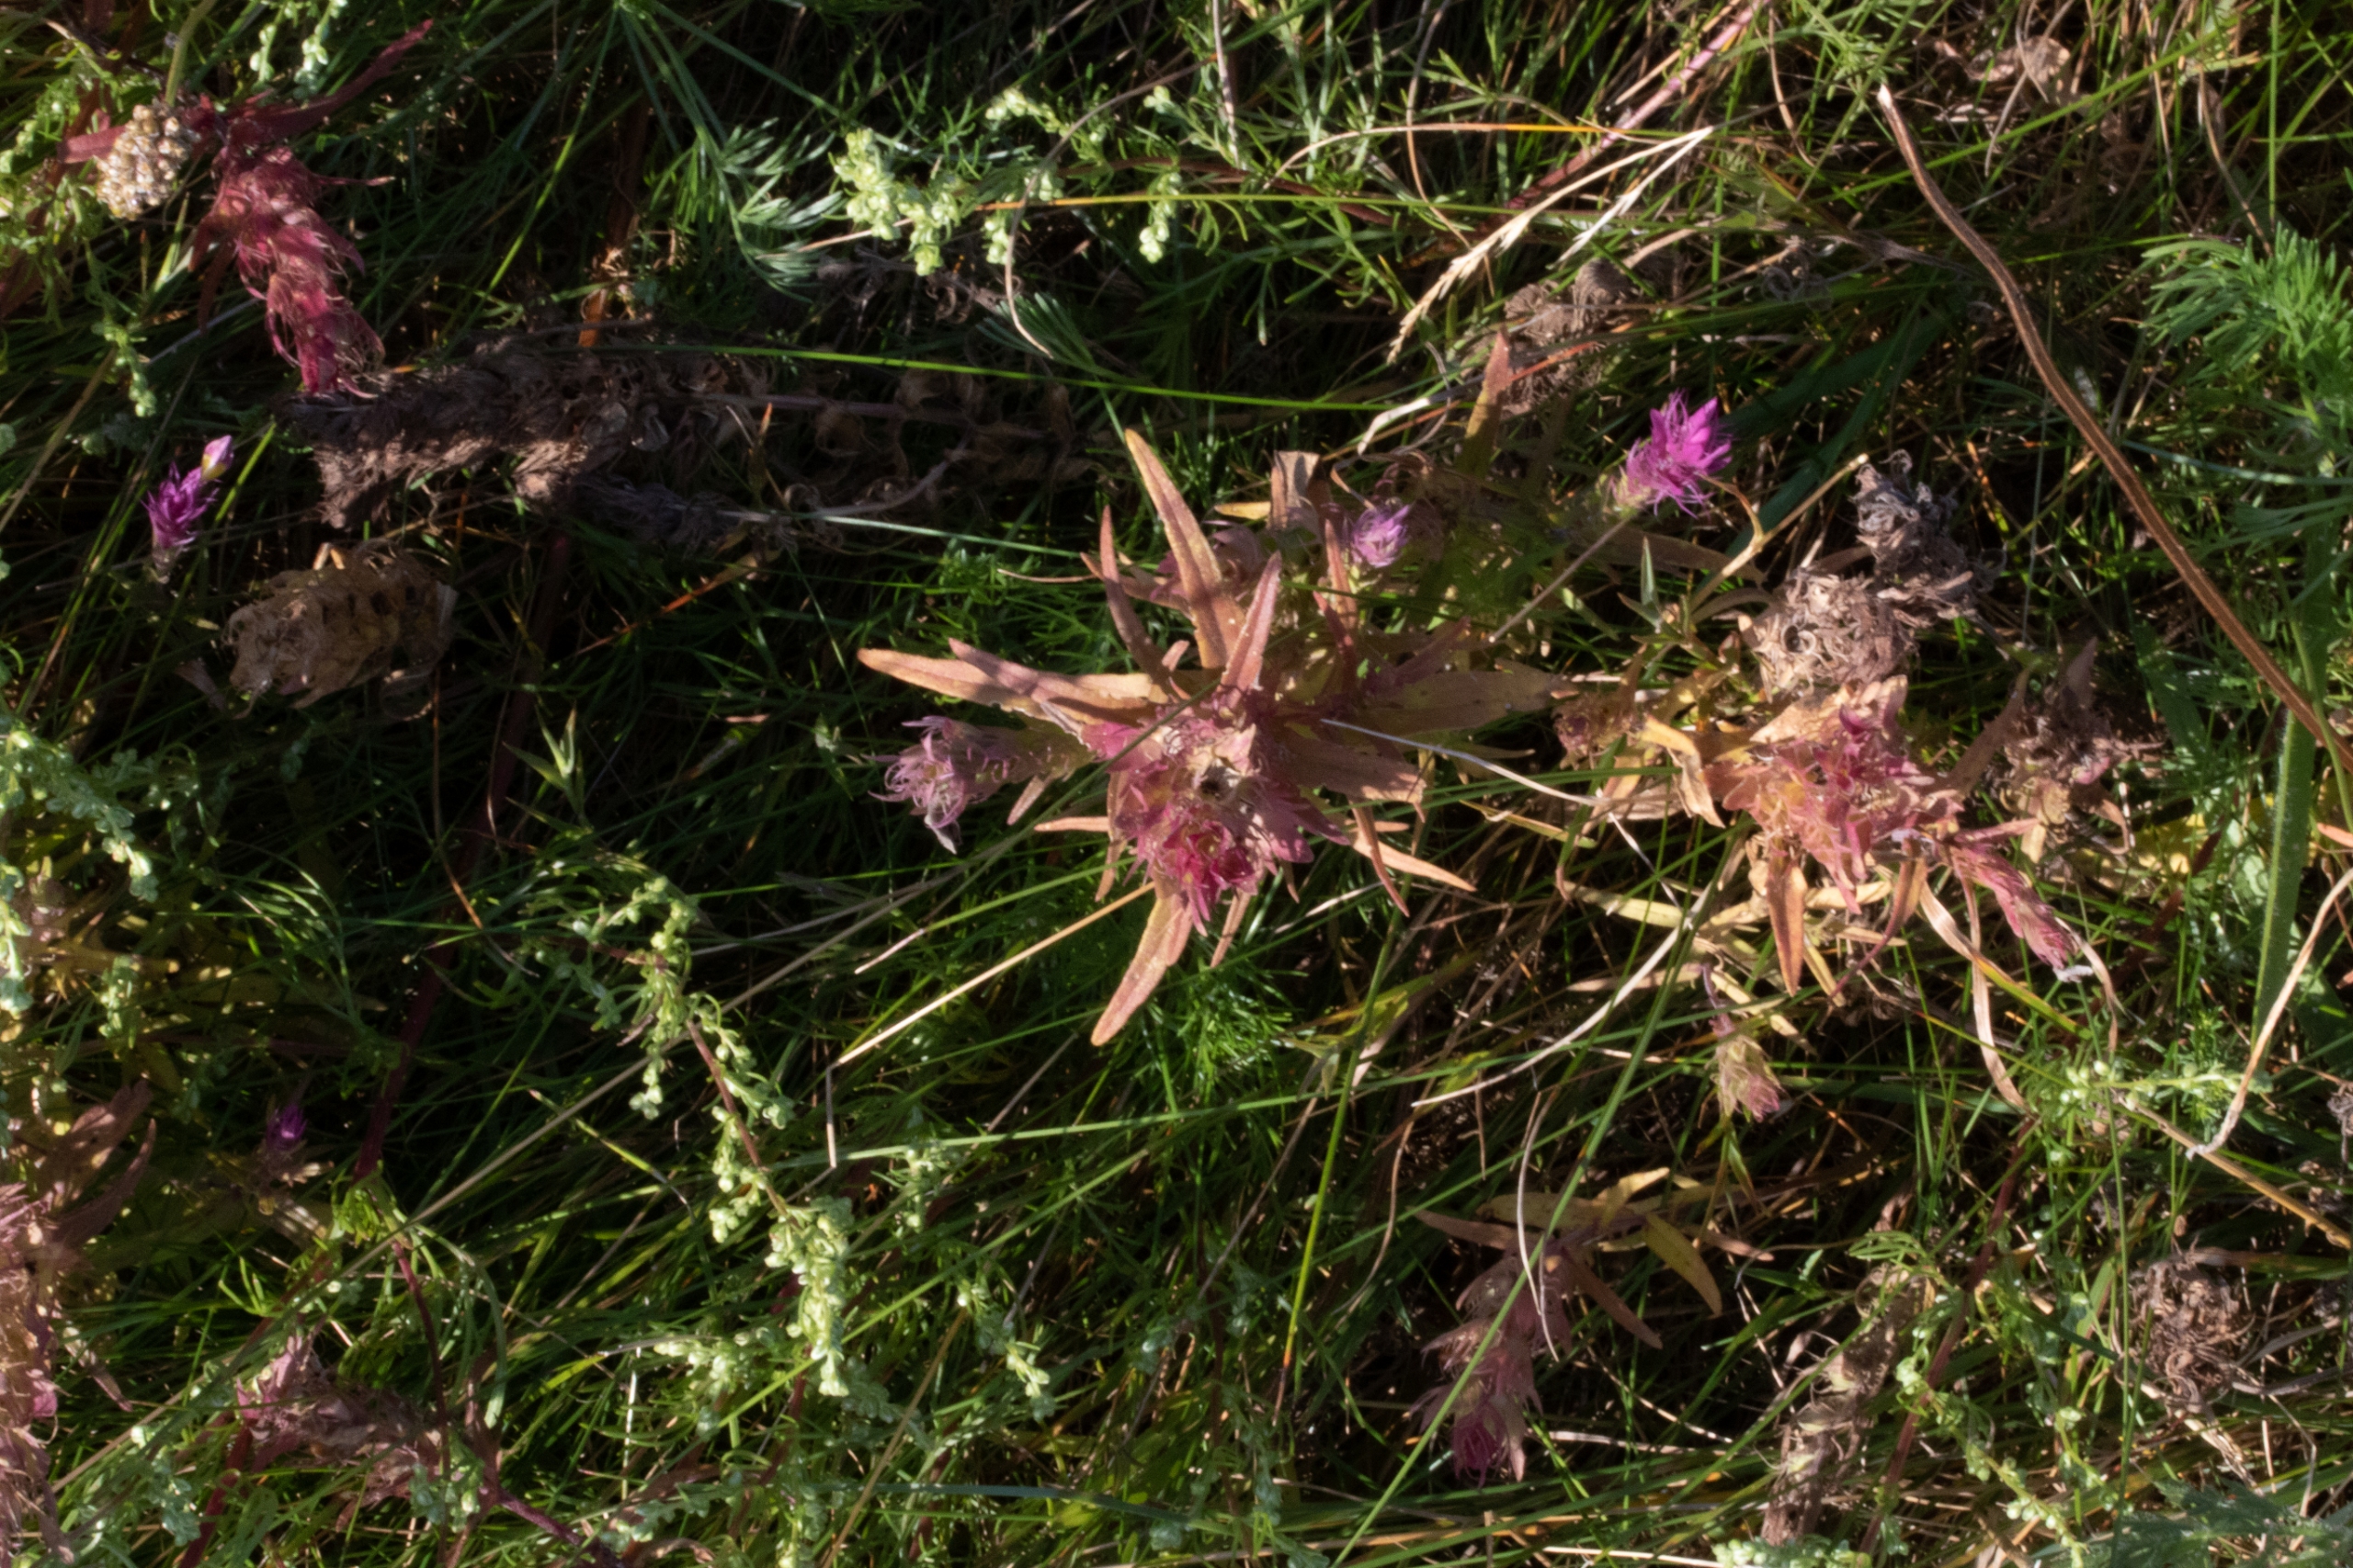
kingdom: Plantae
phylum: Tracheophyta
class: Magnoliopsida
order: Lamiales
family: Orobanchaceae
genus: Melampyrum
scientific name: Melampyrum arvense
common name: Ager-kohvede
